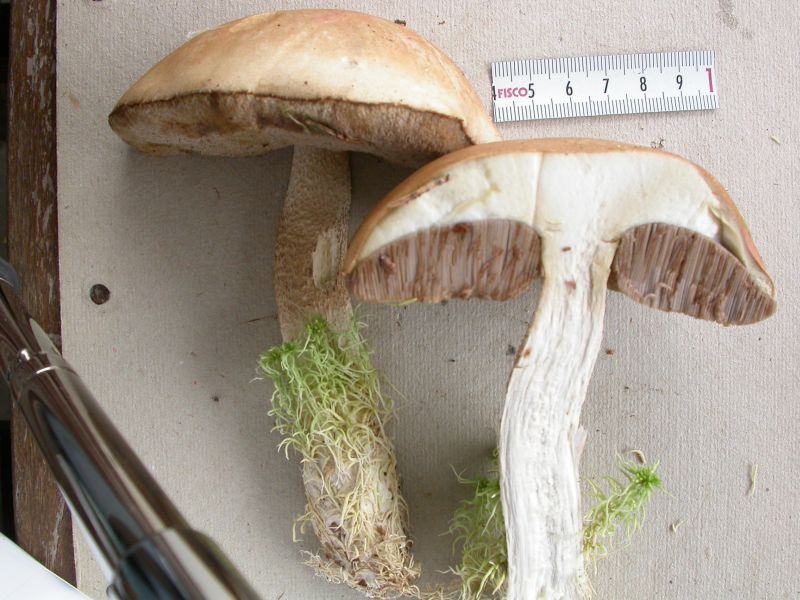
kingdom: Fungi
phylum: Basidiomycota
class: Agaricomycetes
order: Boletales
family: Boletaceae
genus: Leccinum
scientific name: Leccinum scabrum
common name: brun skælrørhat
